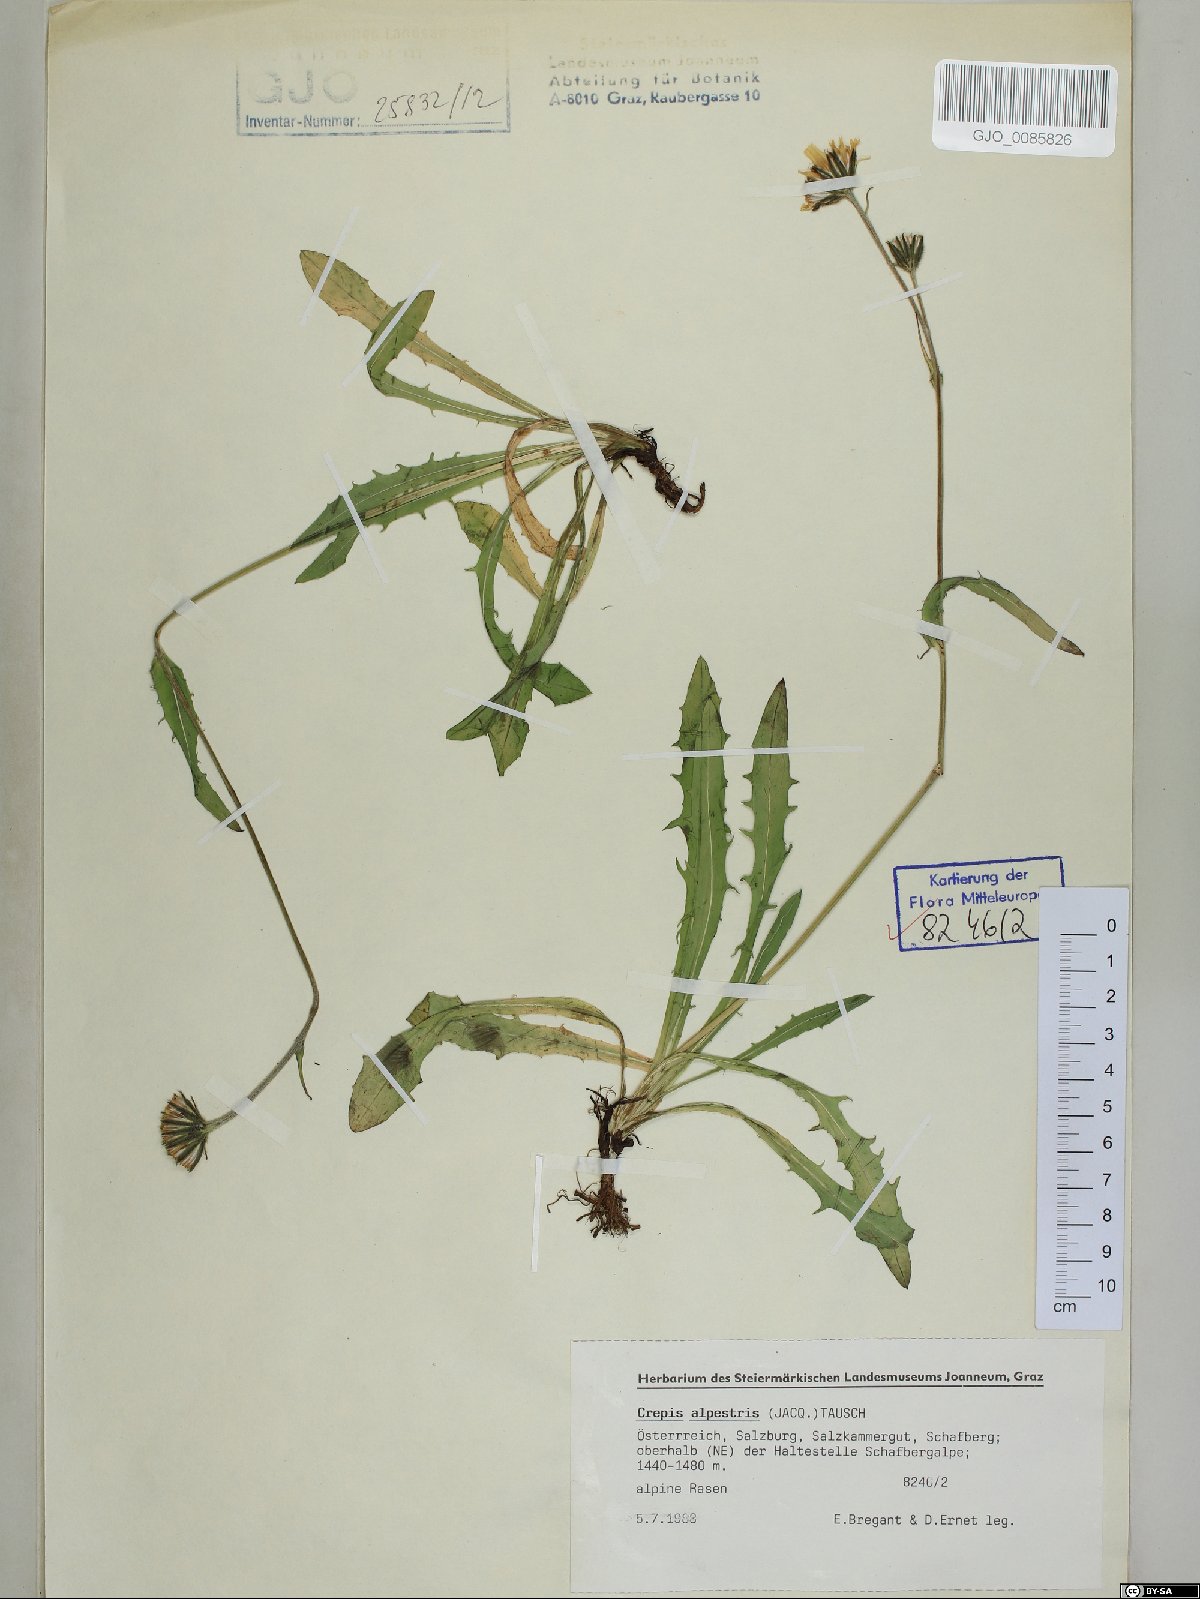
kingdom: Plantae
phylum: Tracheophyta
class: Magnoliopsida
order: Asterales
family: Asteraceae
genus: Crepis
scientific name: Crepis alpestris
